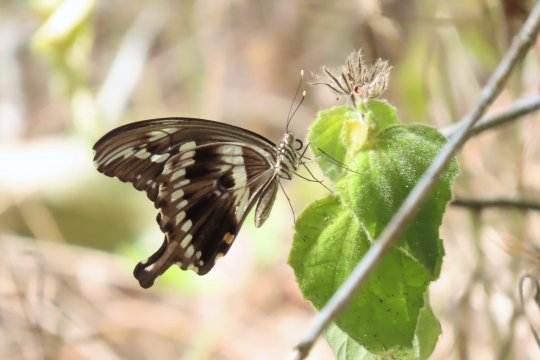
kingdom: Animalia
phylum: Arthropoda
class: Insecta
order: Lepidoptera
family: Papilionidae
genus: Papilio
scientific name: Papilio constantinus
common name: Constantine's Swallowtail
